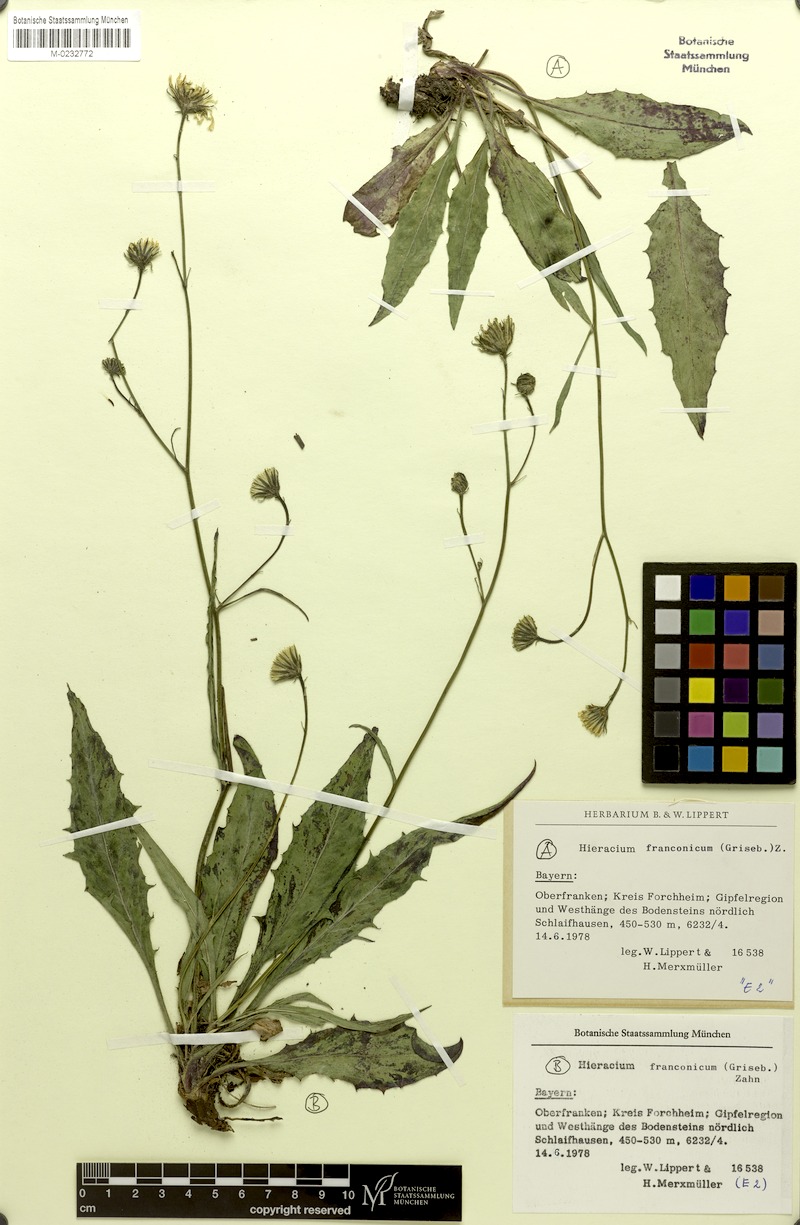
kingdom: Plantae
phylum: Tracheophyta
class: Magnoliopsida
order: Asterales
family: Asteraceae
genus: Hieracium
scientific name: Hieracium franconicum
